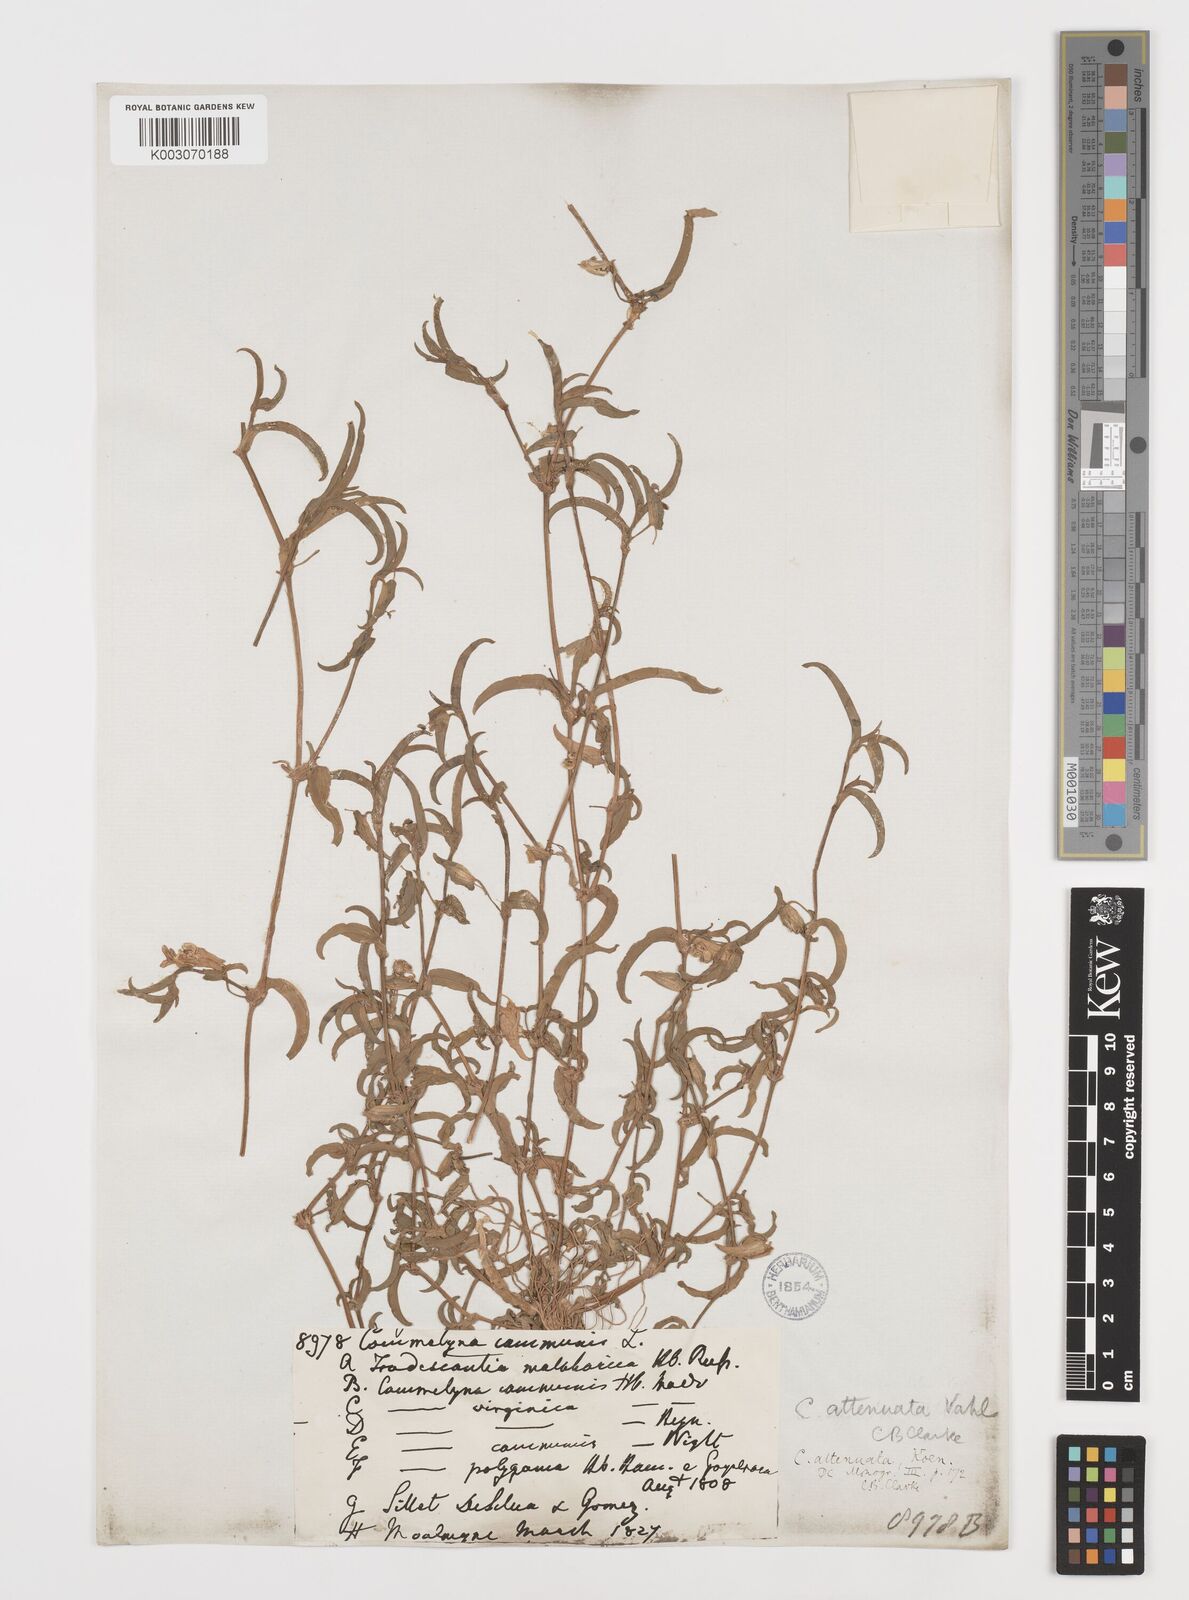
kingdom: Plantae
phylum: Tracheophyta
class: Liliopsida
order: Commelinales
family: Commelinaceae
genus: Commelina
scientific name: Commelina attenuata
